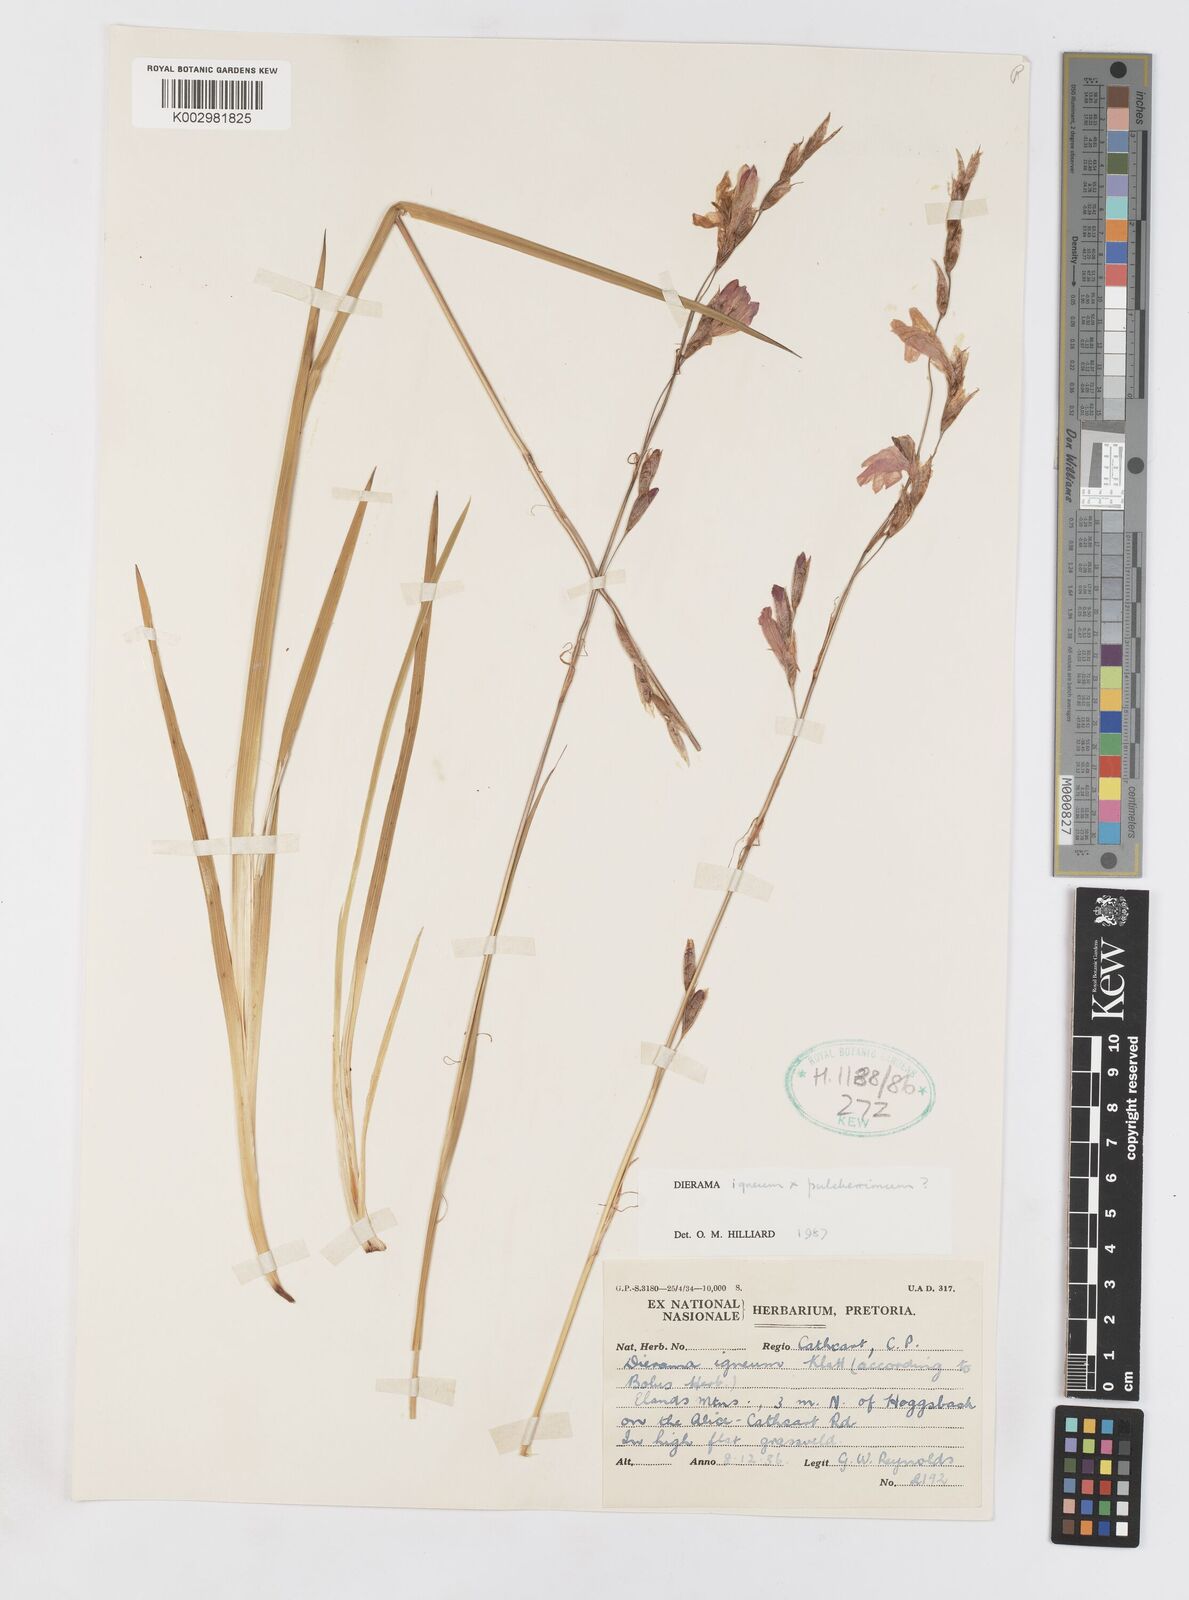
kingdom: Plantae
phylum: Tracheophyta
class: Liliopsida
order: Asparagales
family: Iridaceae
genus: Dierama
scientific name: Dierama igneum
